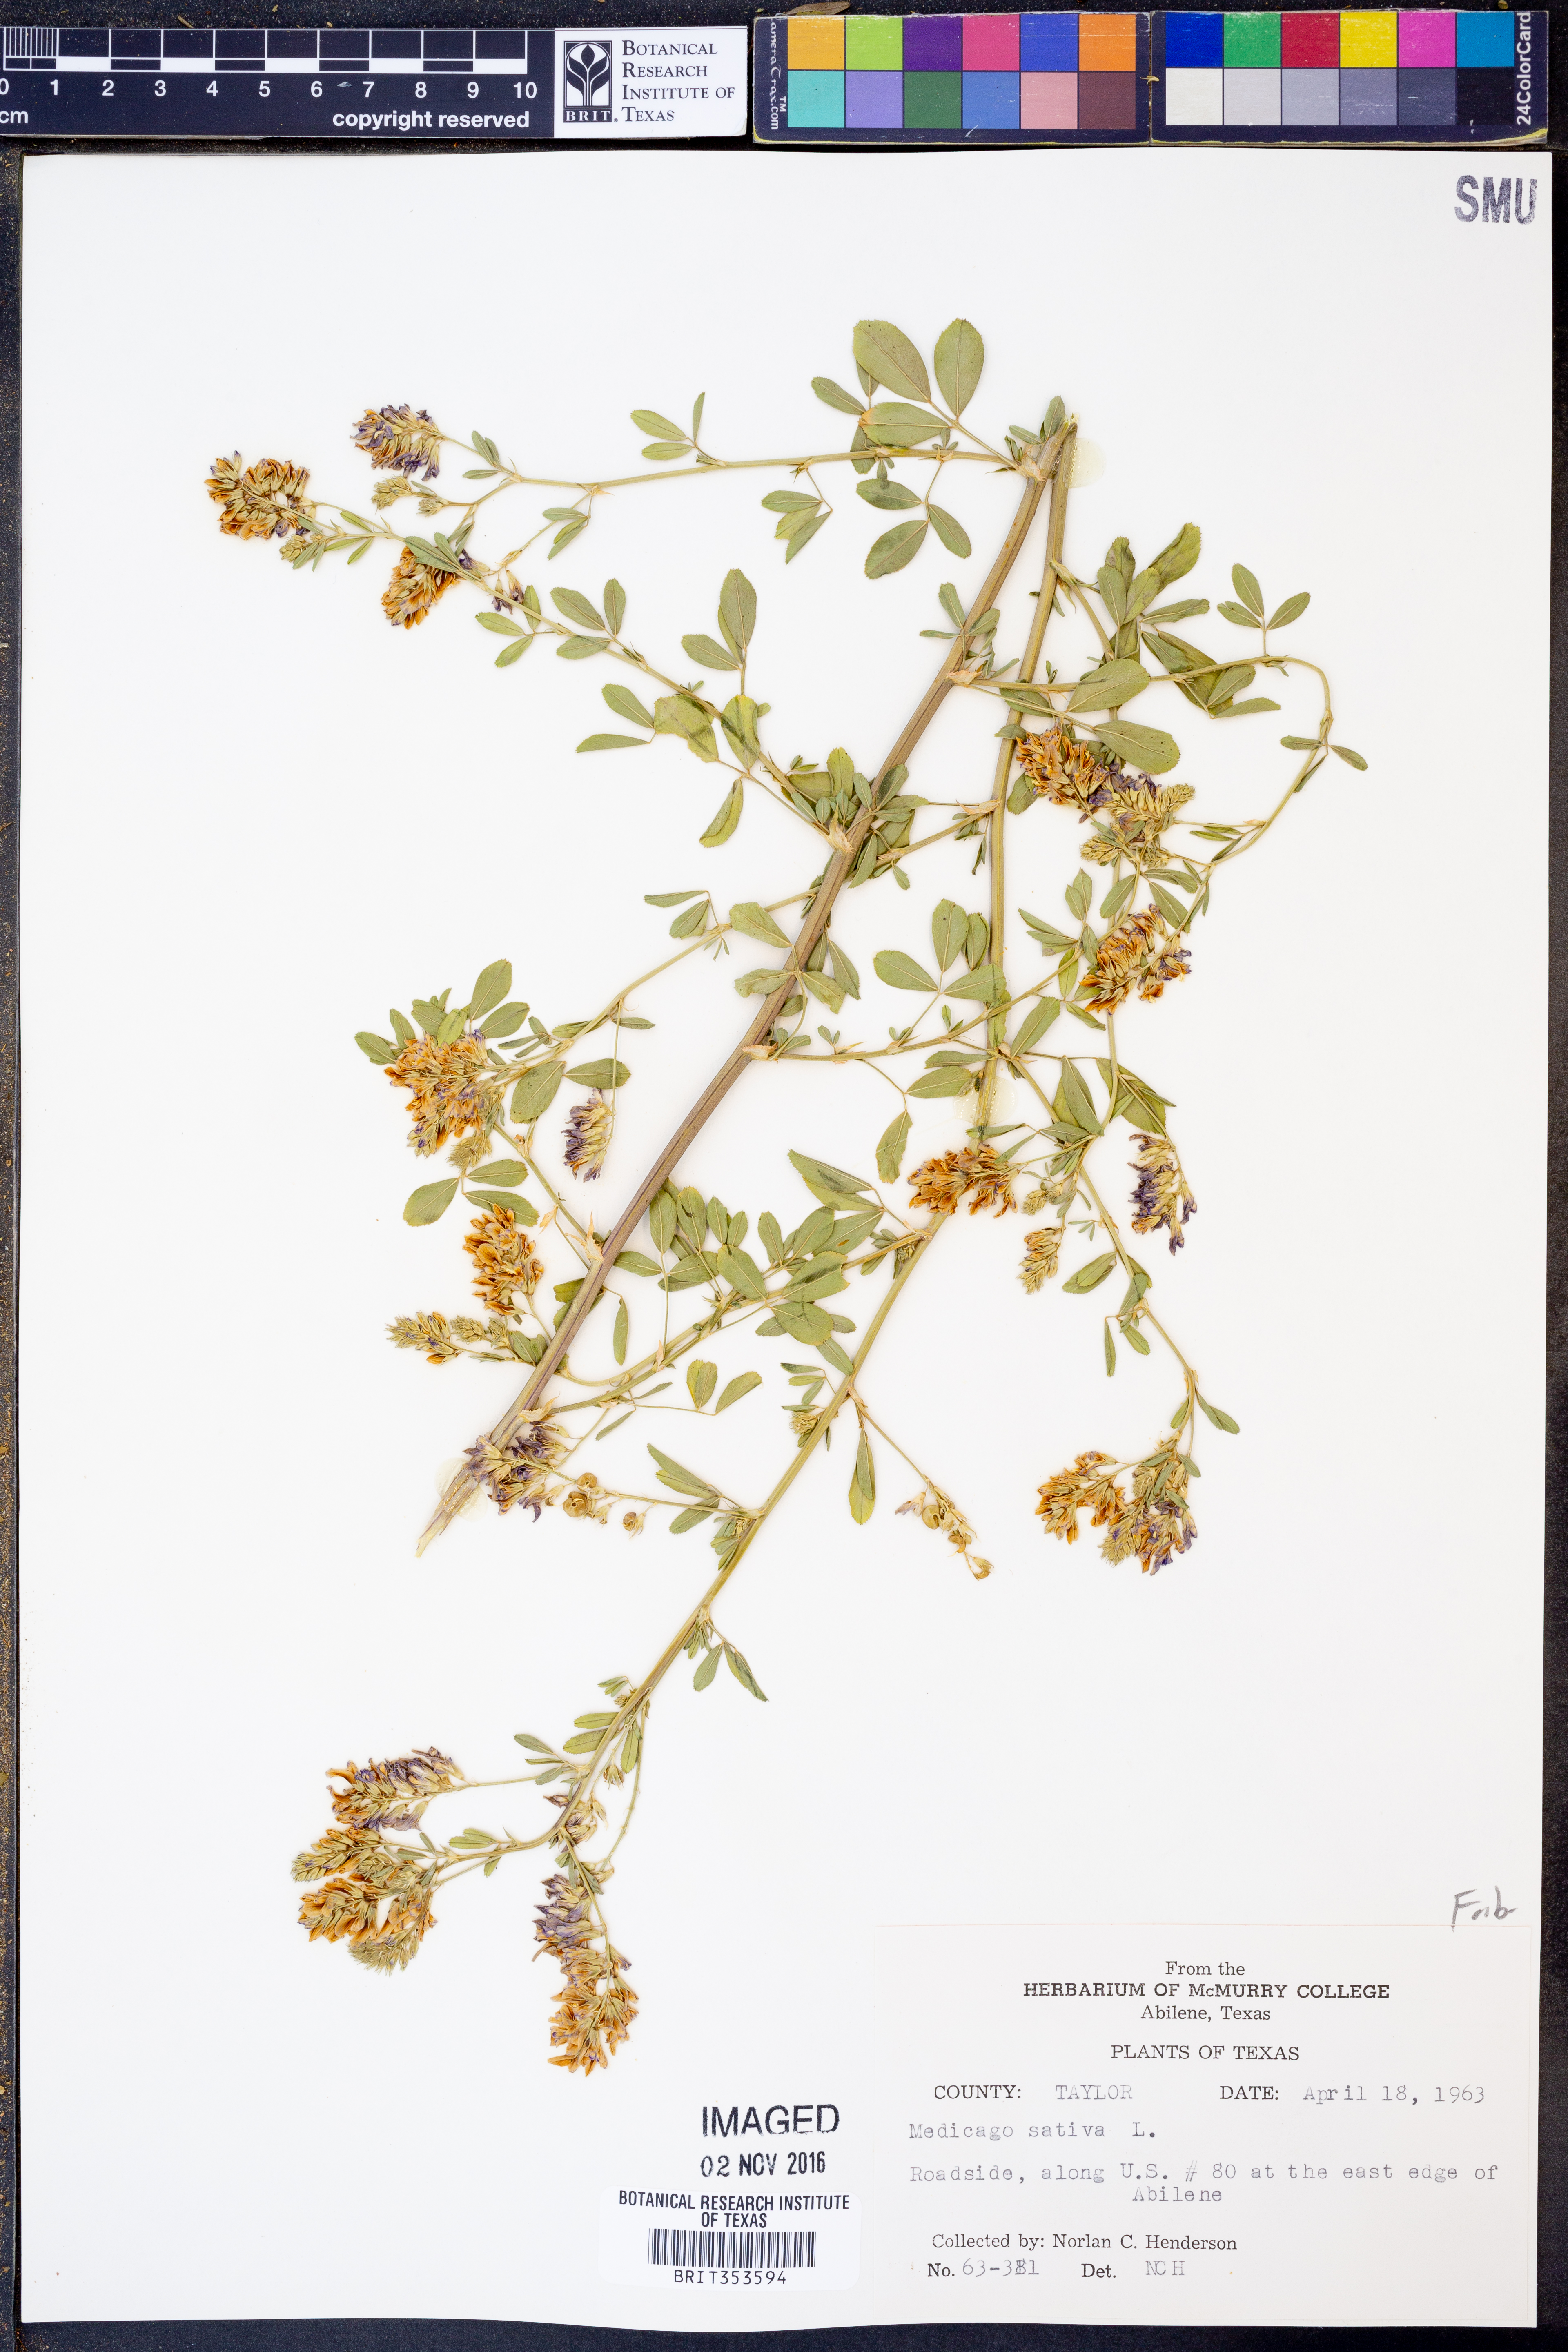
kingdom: Plantae
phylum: Tracheophyta
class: Magnoliopsida
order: Fabales
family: Fabaceae
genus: Medicago
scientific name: Medicago sativa
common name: Alfalfa
